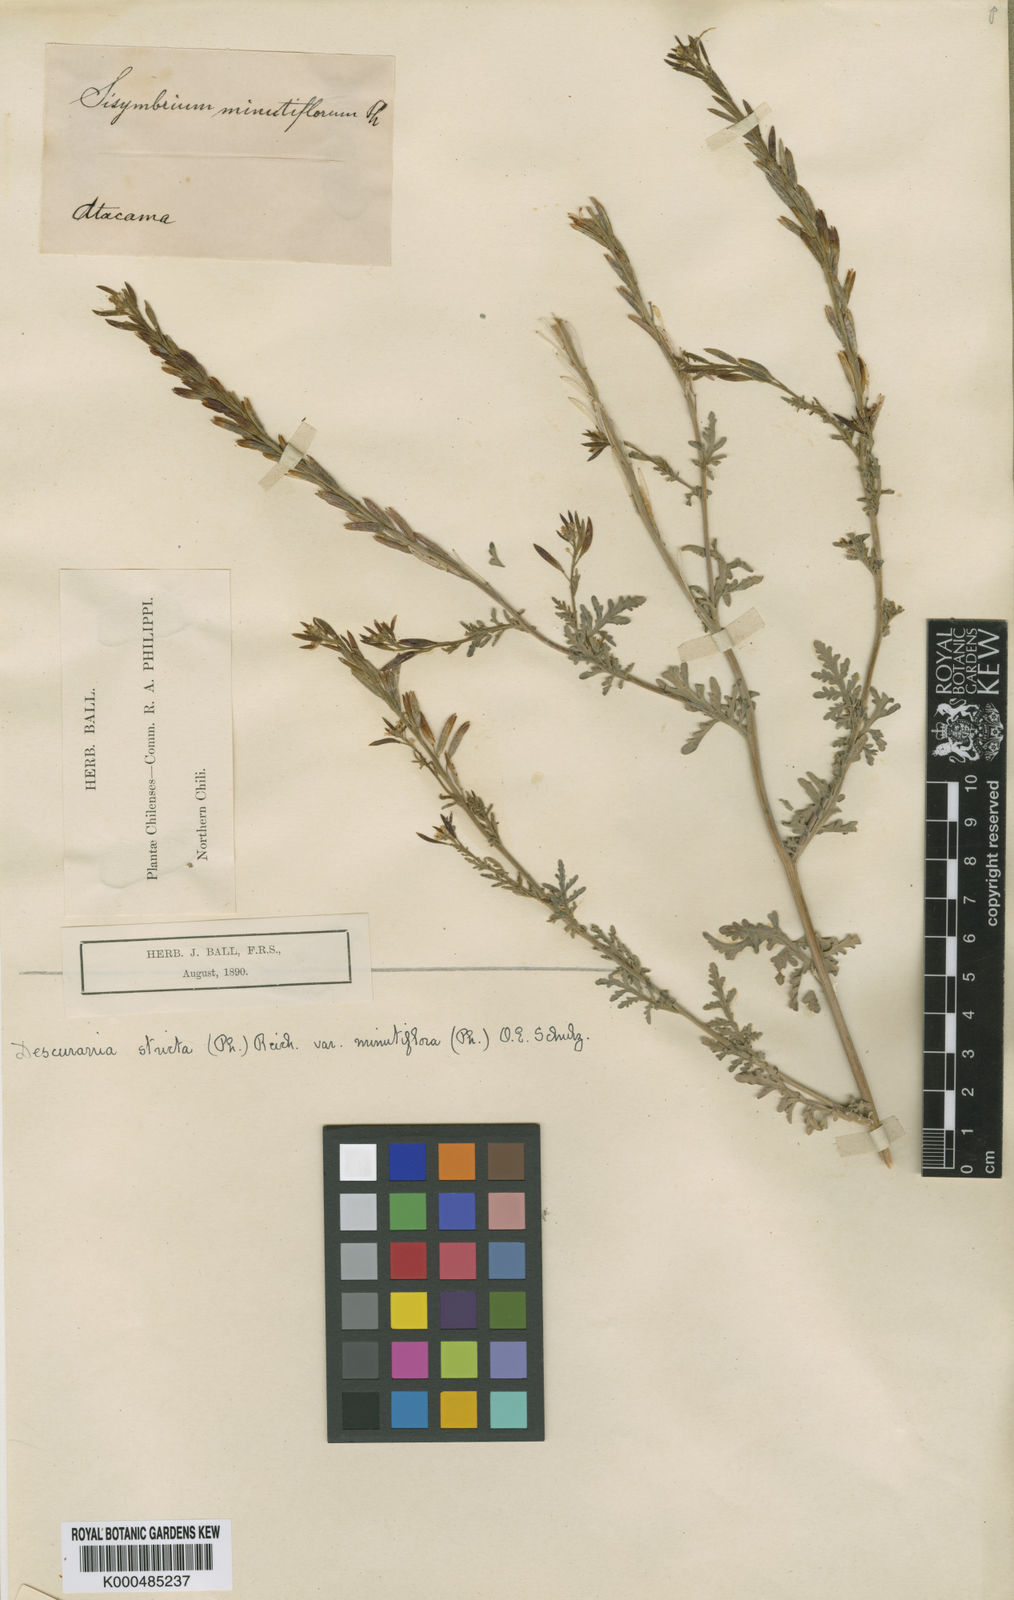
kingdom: Plantae
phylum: Tracheophyta
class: Magnoliopsida
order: Brassicales
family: Brassicaceae
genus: Descurainia
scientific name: Descurainia stricta
